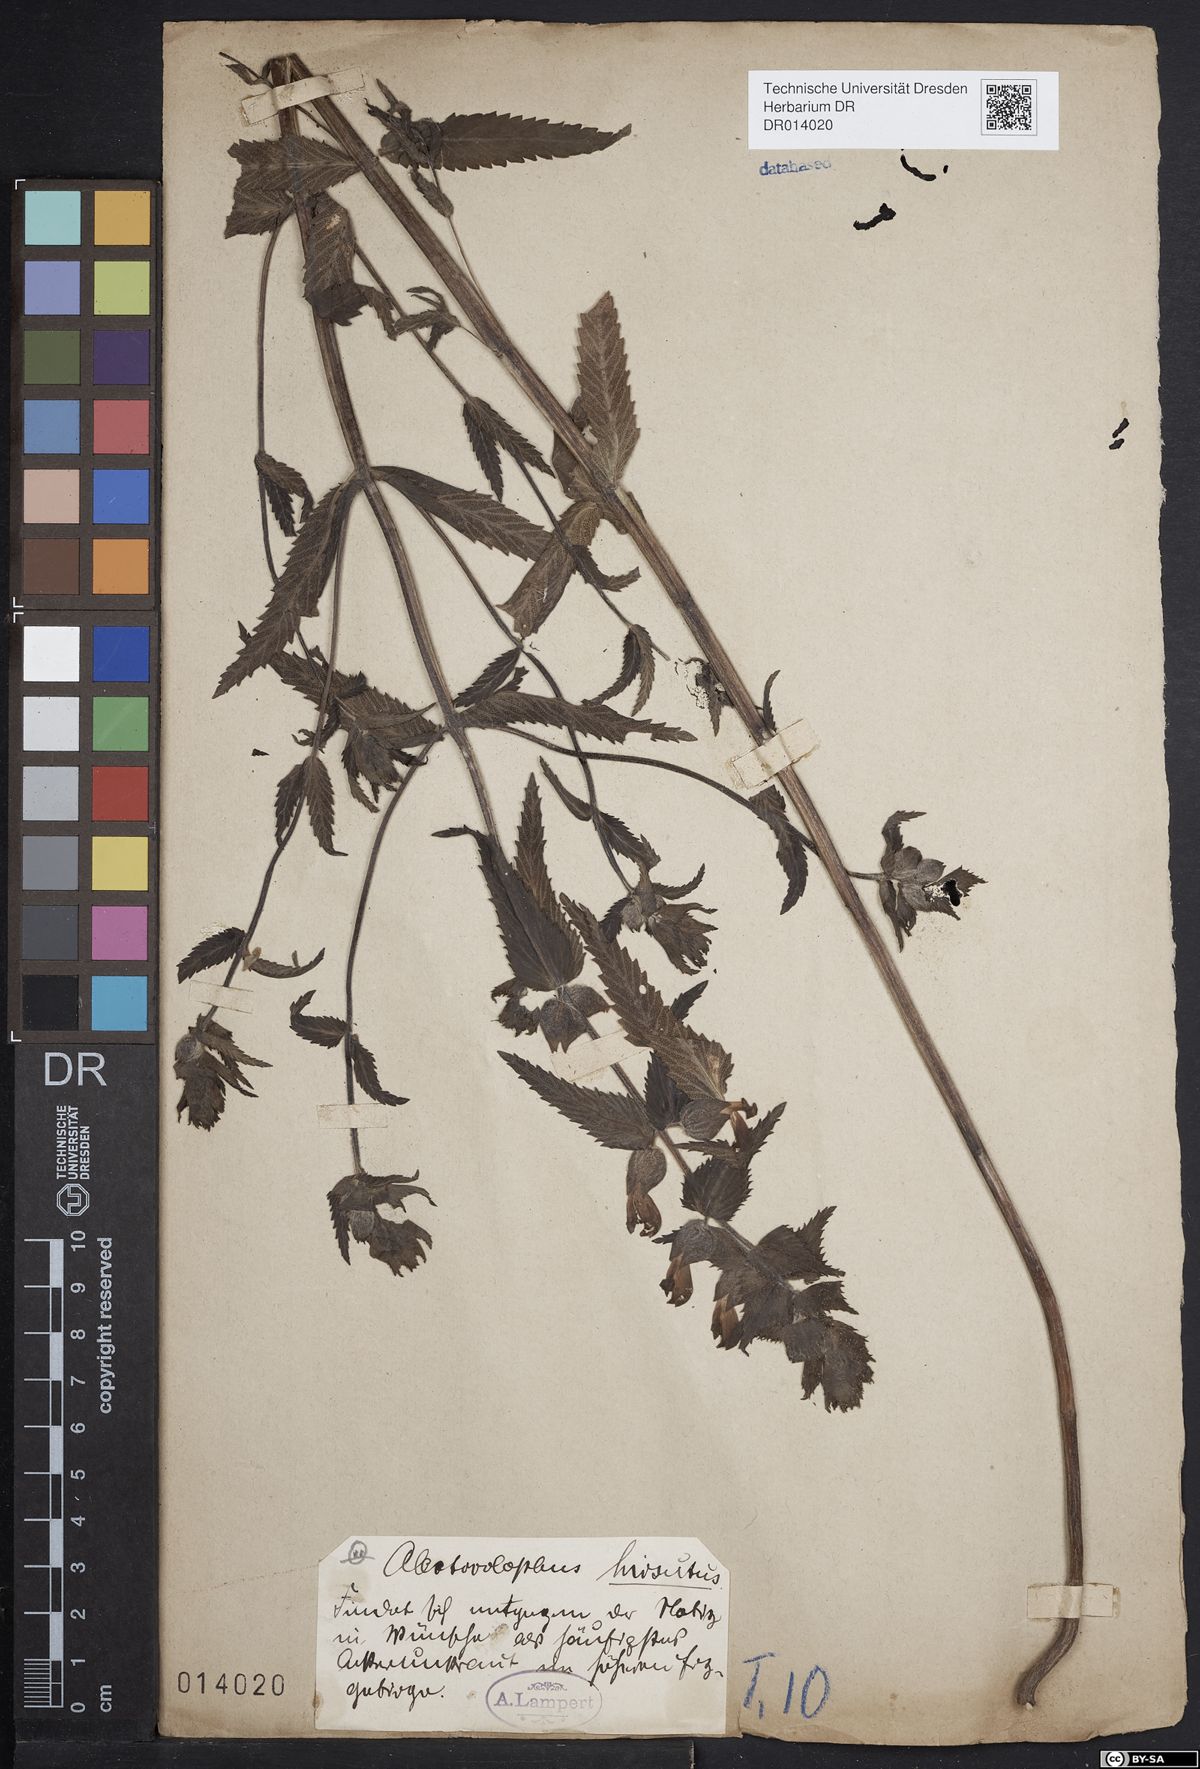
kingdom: Plantae
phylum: Tracheophyta
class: Magnoliopsida
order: Lamiales
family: Orobanchaceae
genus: Rhinanthus
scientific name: Rhinanthus alectorolophus
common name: Greater yellow-rattle
